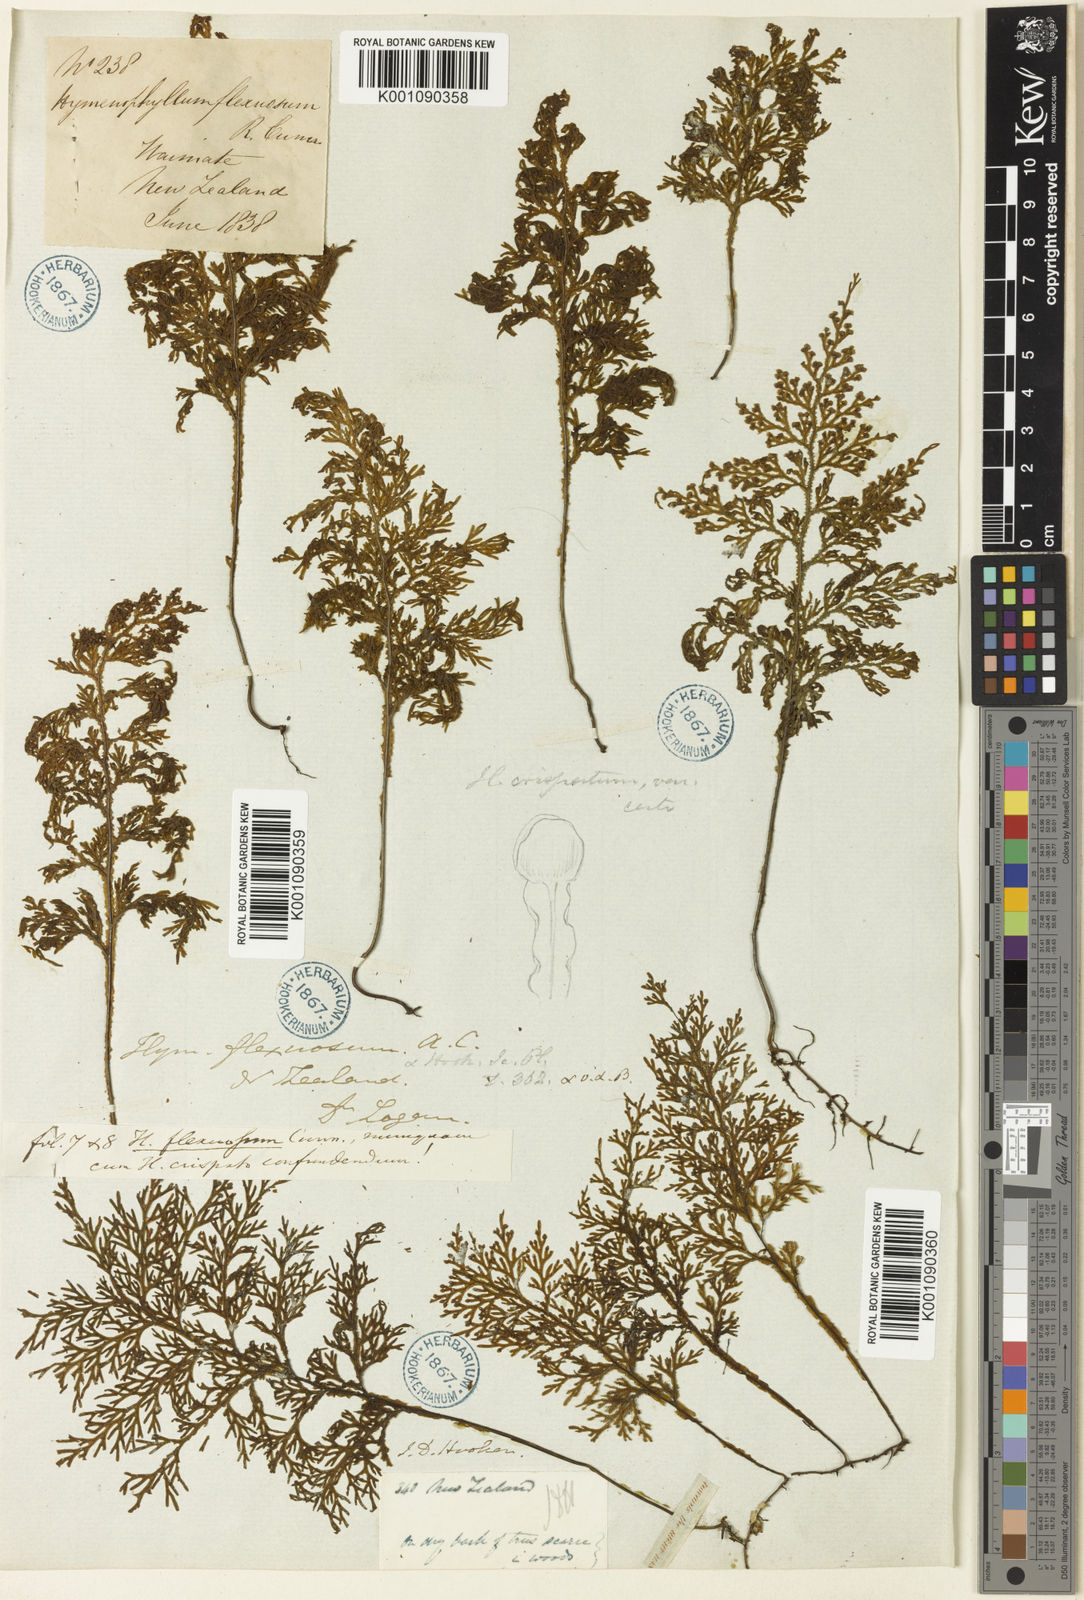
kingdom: Plantae
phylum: Tracheophyta
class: Polypodiopsida
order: Hymenophyllales
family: Hymenophyllaceae
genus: Hymenophyllum
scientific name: Hymenophyllum flexuosum
